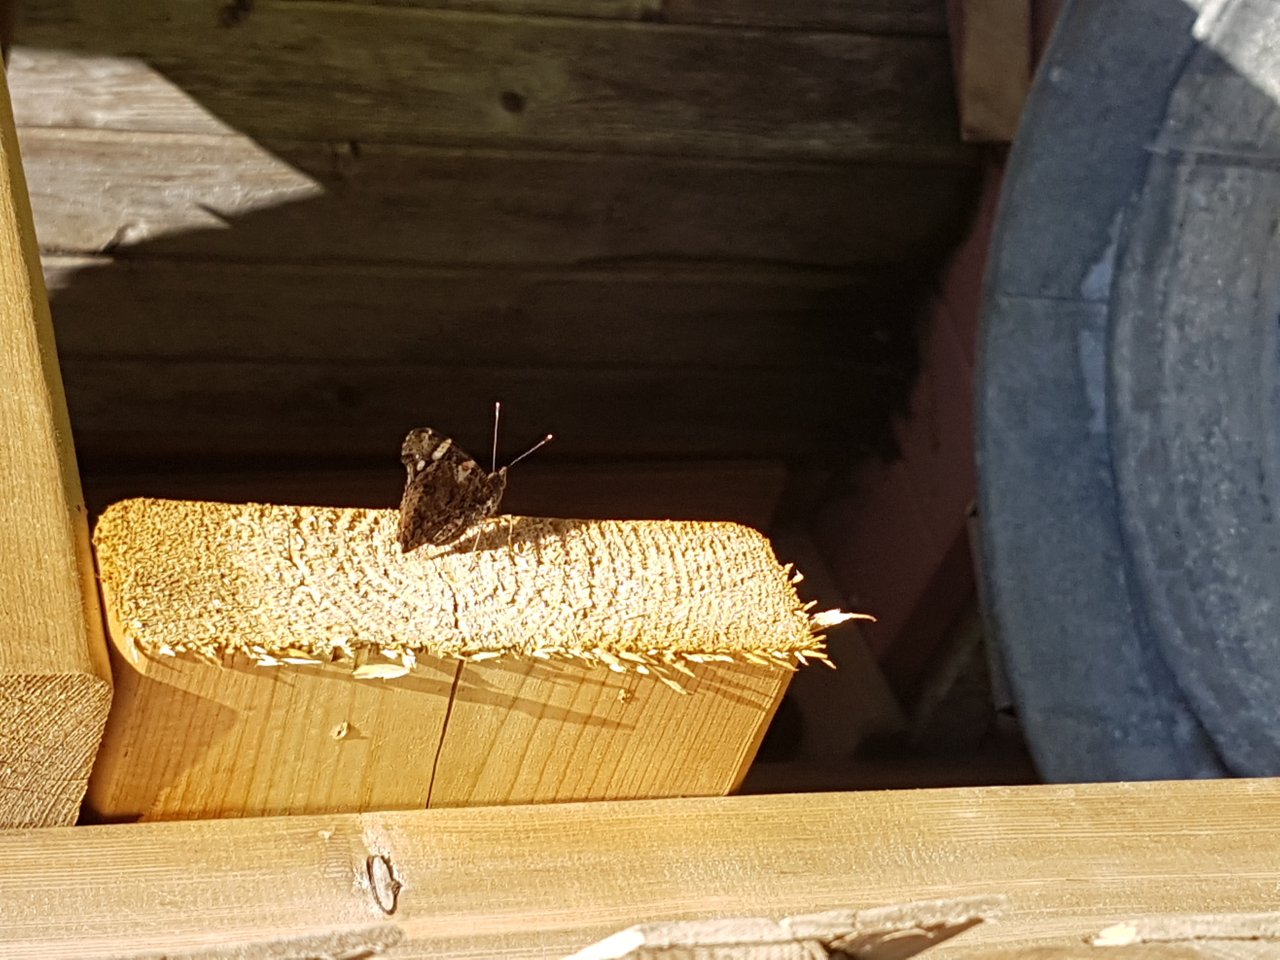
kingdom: Animalia
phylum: Arthropoda
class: Insecta
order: Lepidoptera
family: Nymphalidae
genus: Vanessa
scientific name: Vanessa atalanta
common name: Red Admiral
